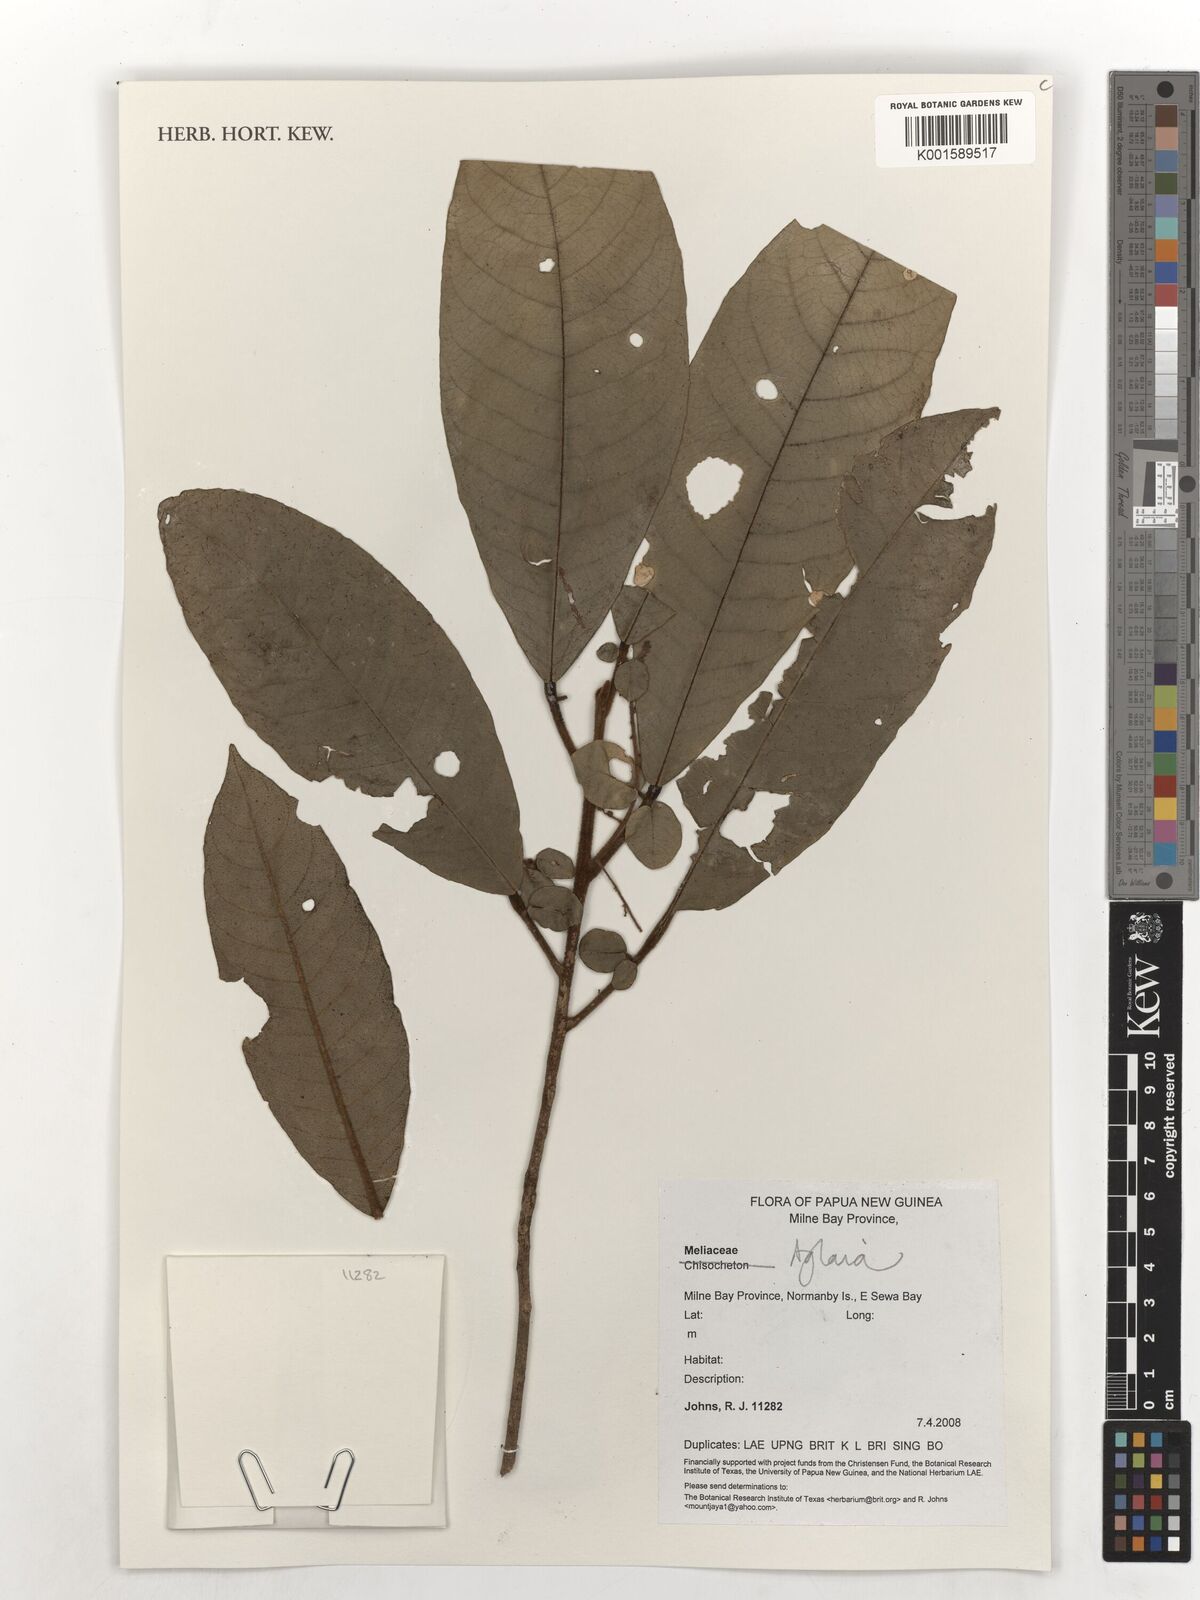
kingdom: Plantae
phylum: Tracheophyta
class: Magnoliopsida
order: Sapindales
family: Meliaceae
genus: Aglaia
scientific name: Aglaia
